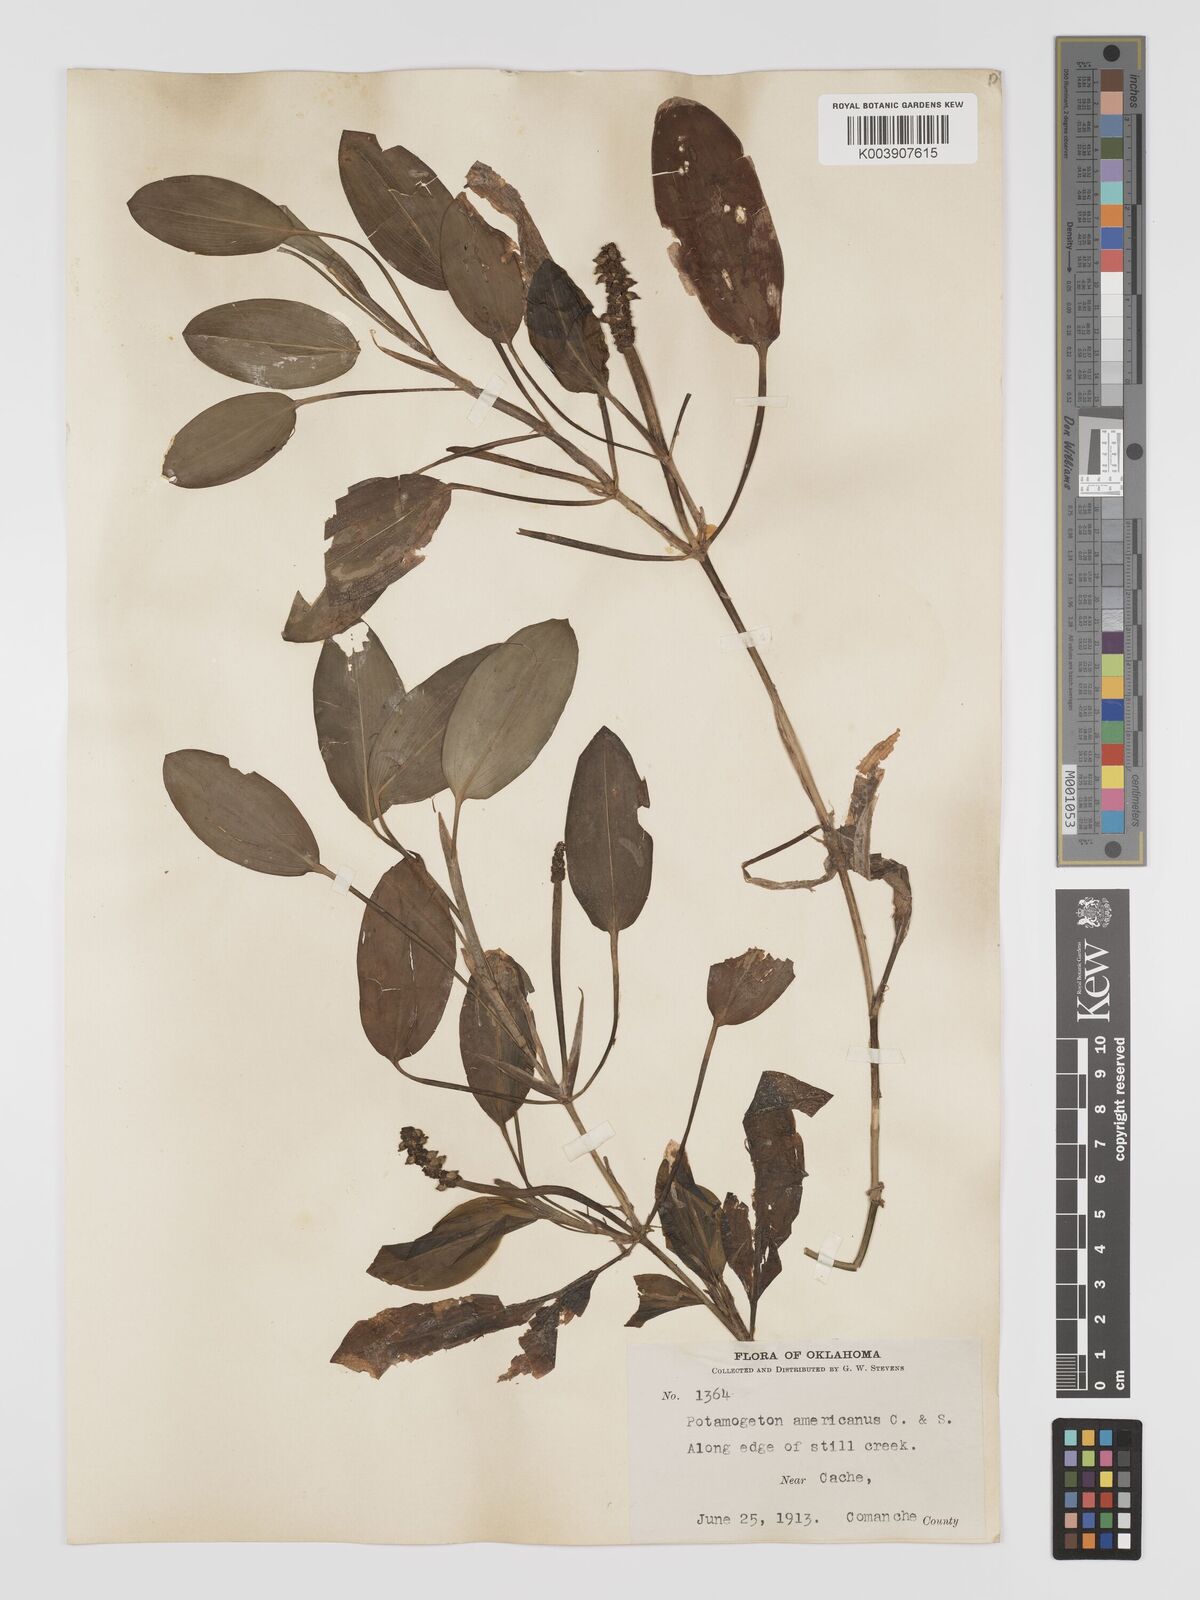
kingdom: Plantae
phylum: Tracheophyta
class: Liliopsida
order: Alismatales
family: Potamogetonaceae
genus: Potamogeton
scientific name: Potamogeton nodosus
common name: Loddon pondweed
